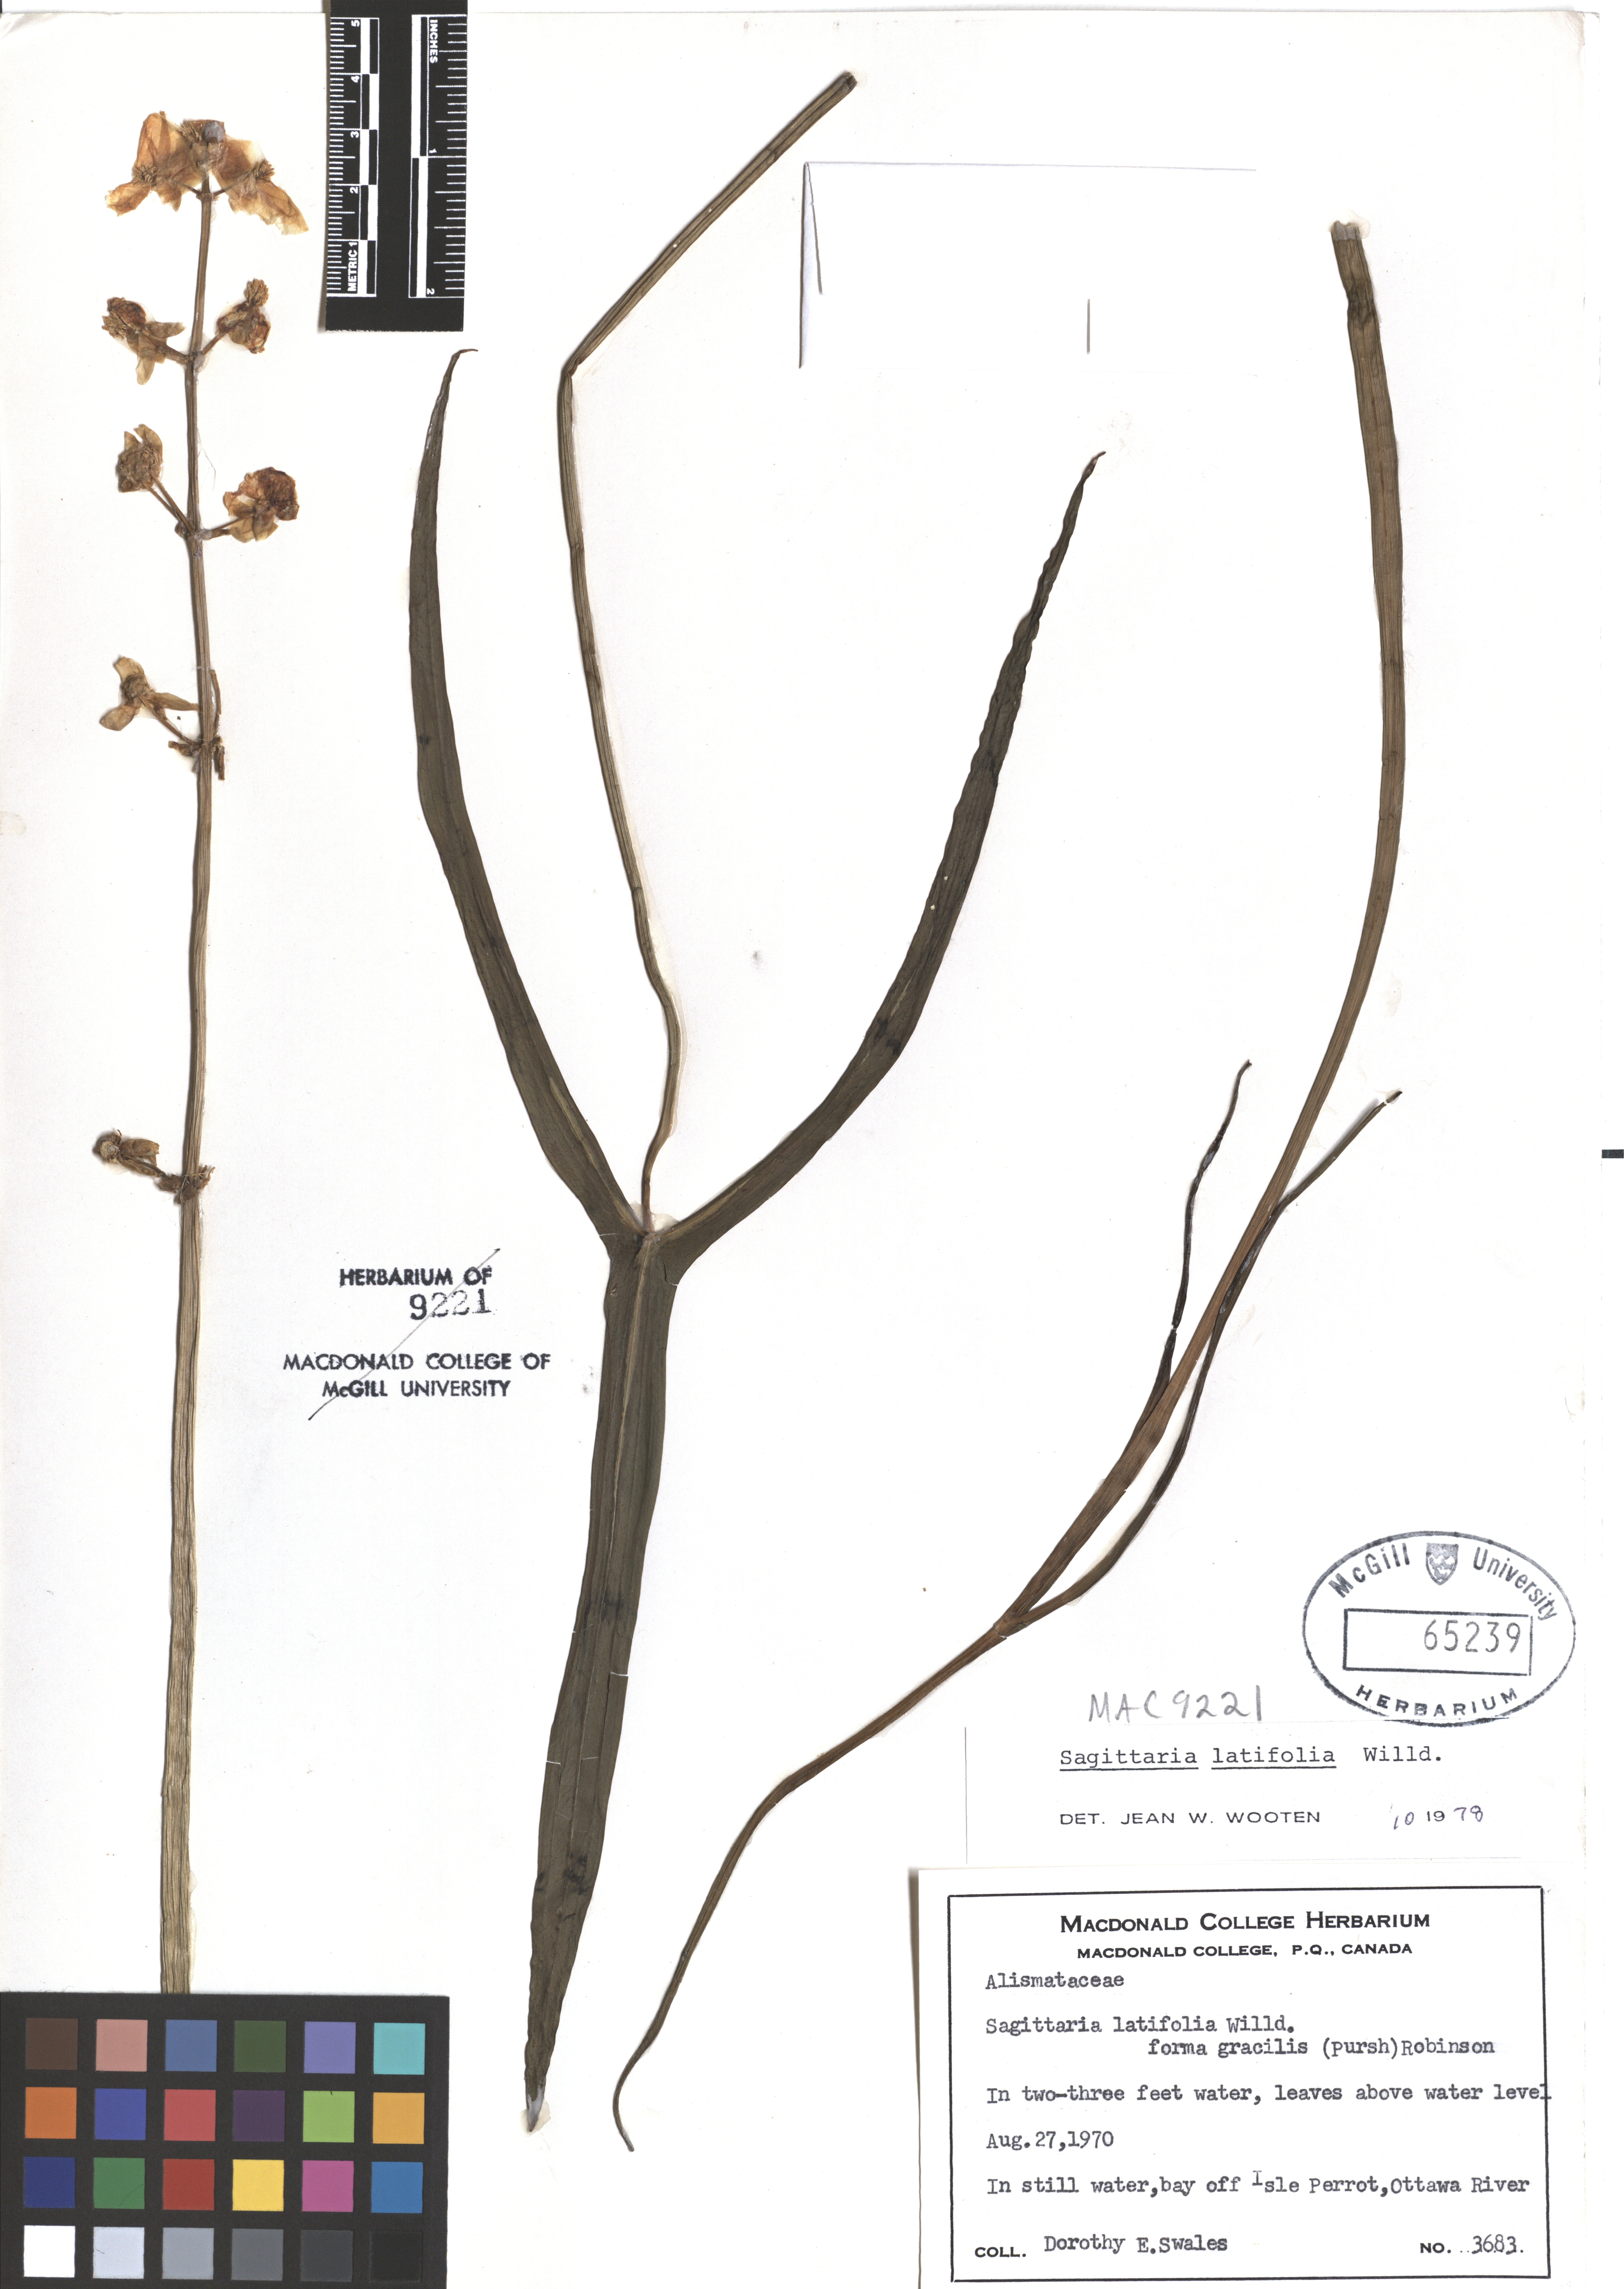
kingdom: Plantae
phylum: Tracheophyta
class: Liliopsida
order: Alismatales
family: Alismataceae
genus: Sagittaria
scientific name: Sagittaria latifolia
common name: Duck-potato
